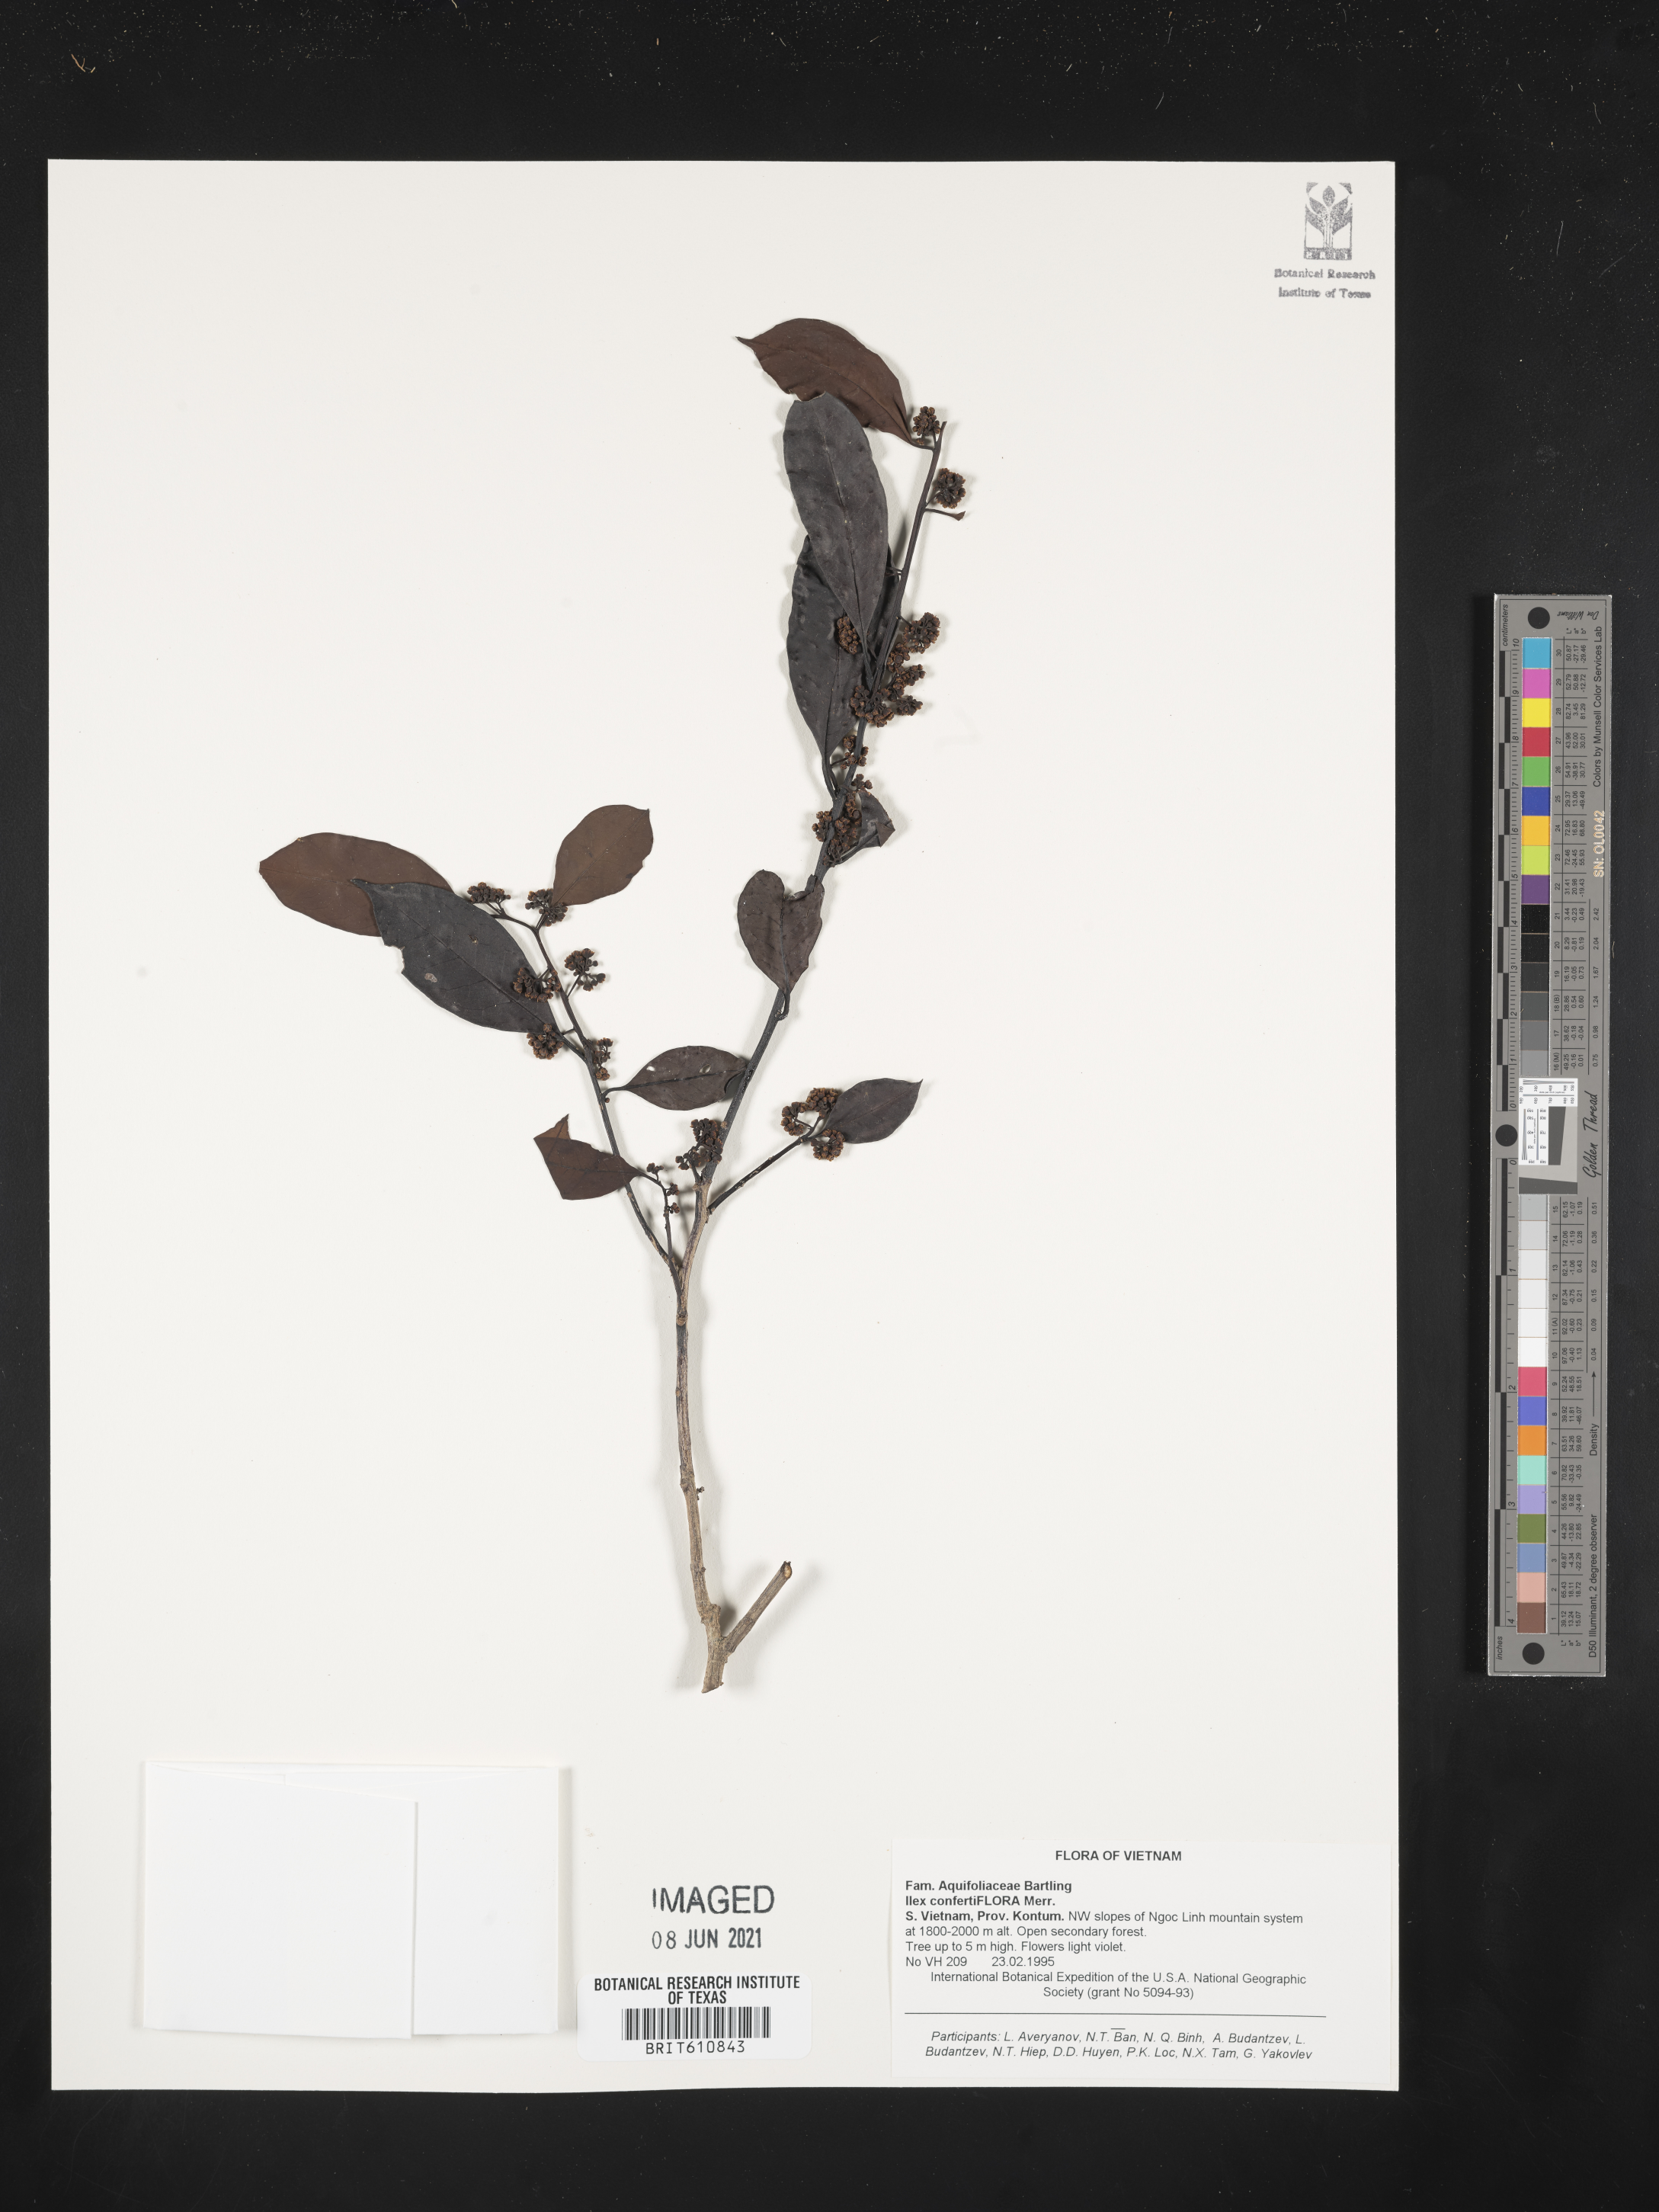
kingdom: Plantae
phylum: Tracheophyta
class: Magnoliopsida
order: Aquifoliales
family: Aquifoliaceae
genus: Ilex
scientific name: Ilex confertiflora
